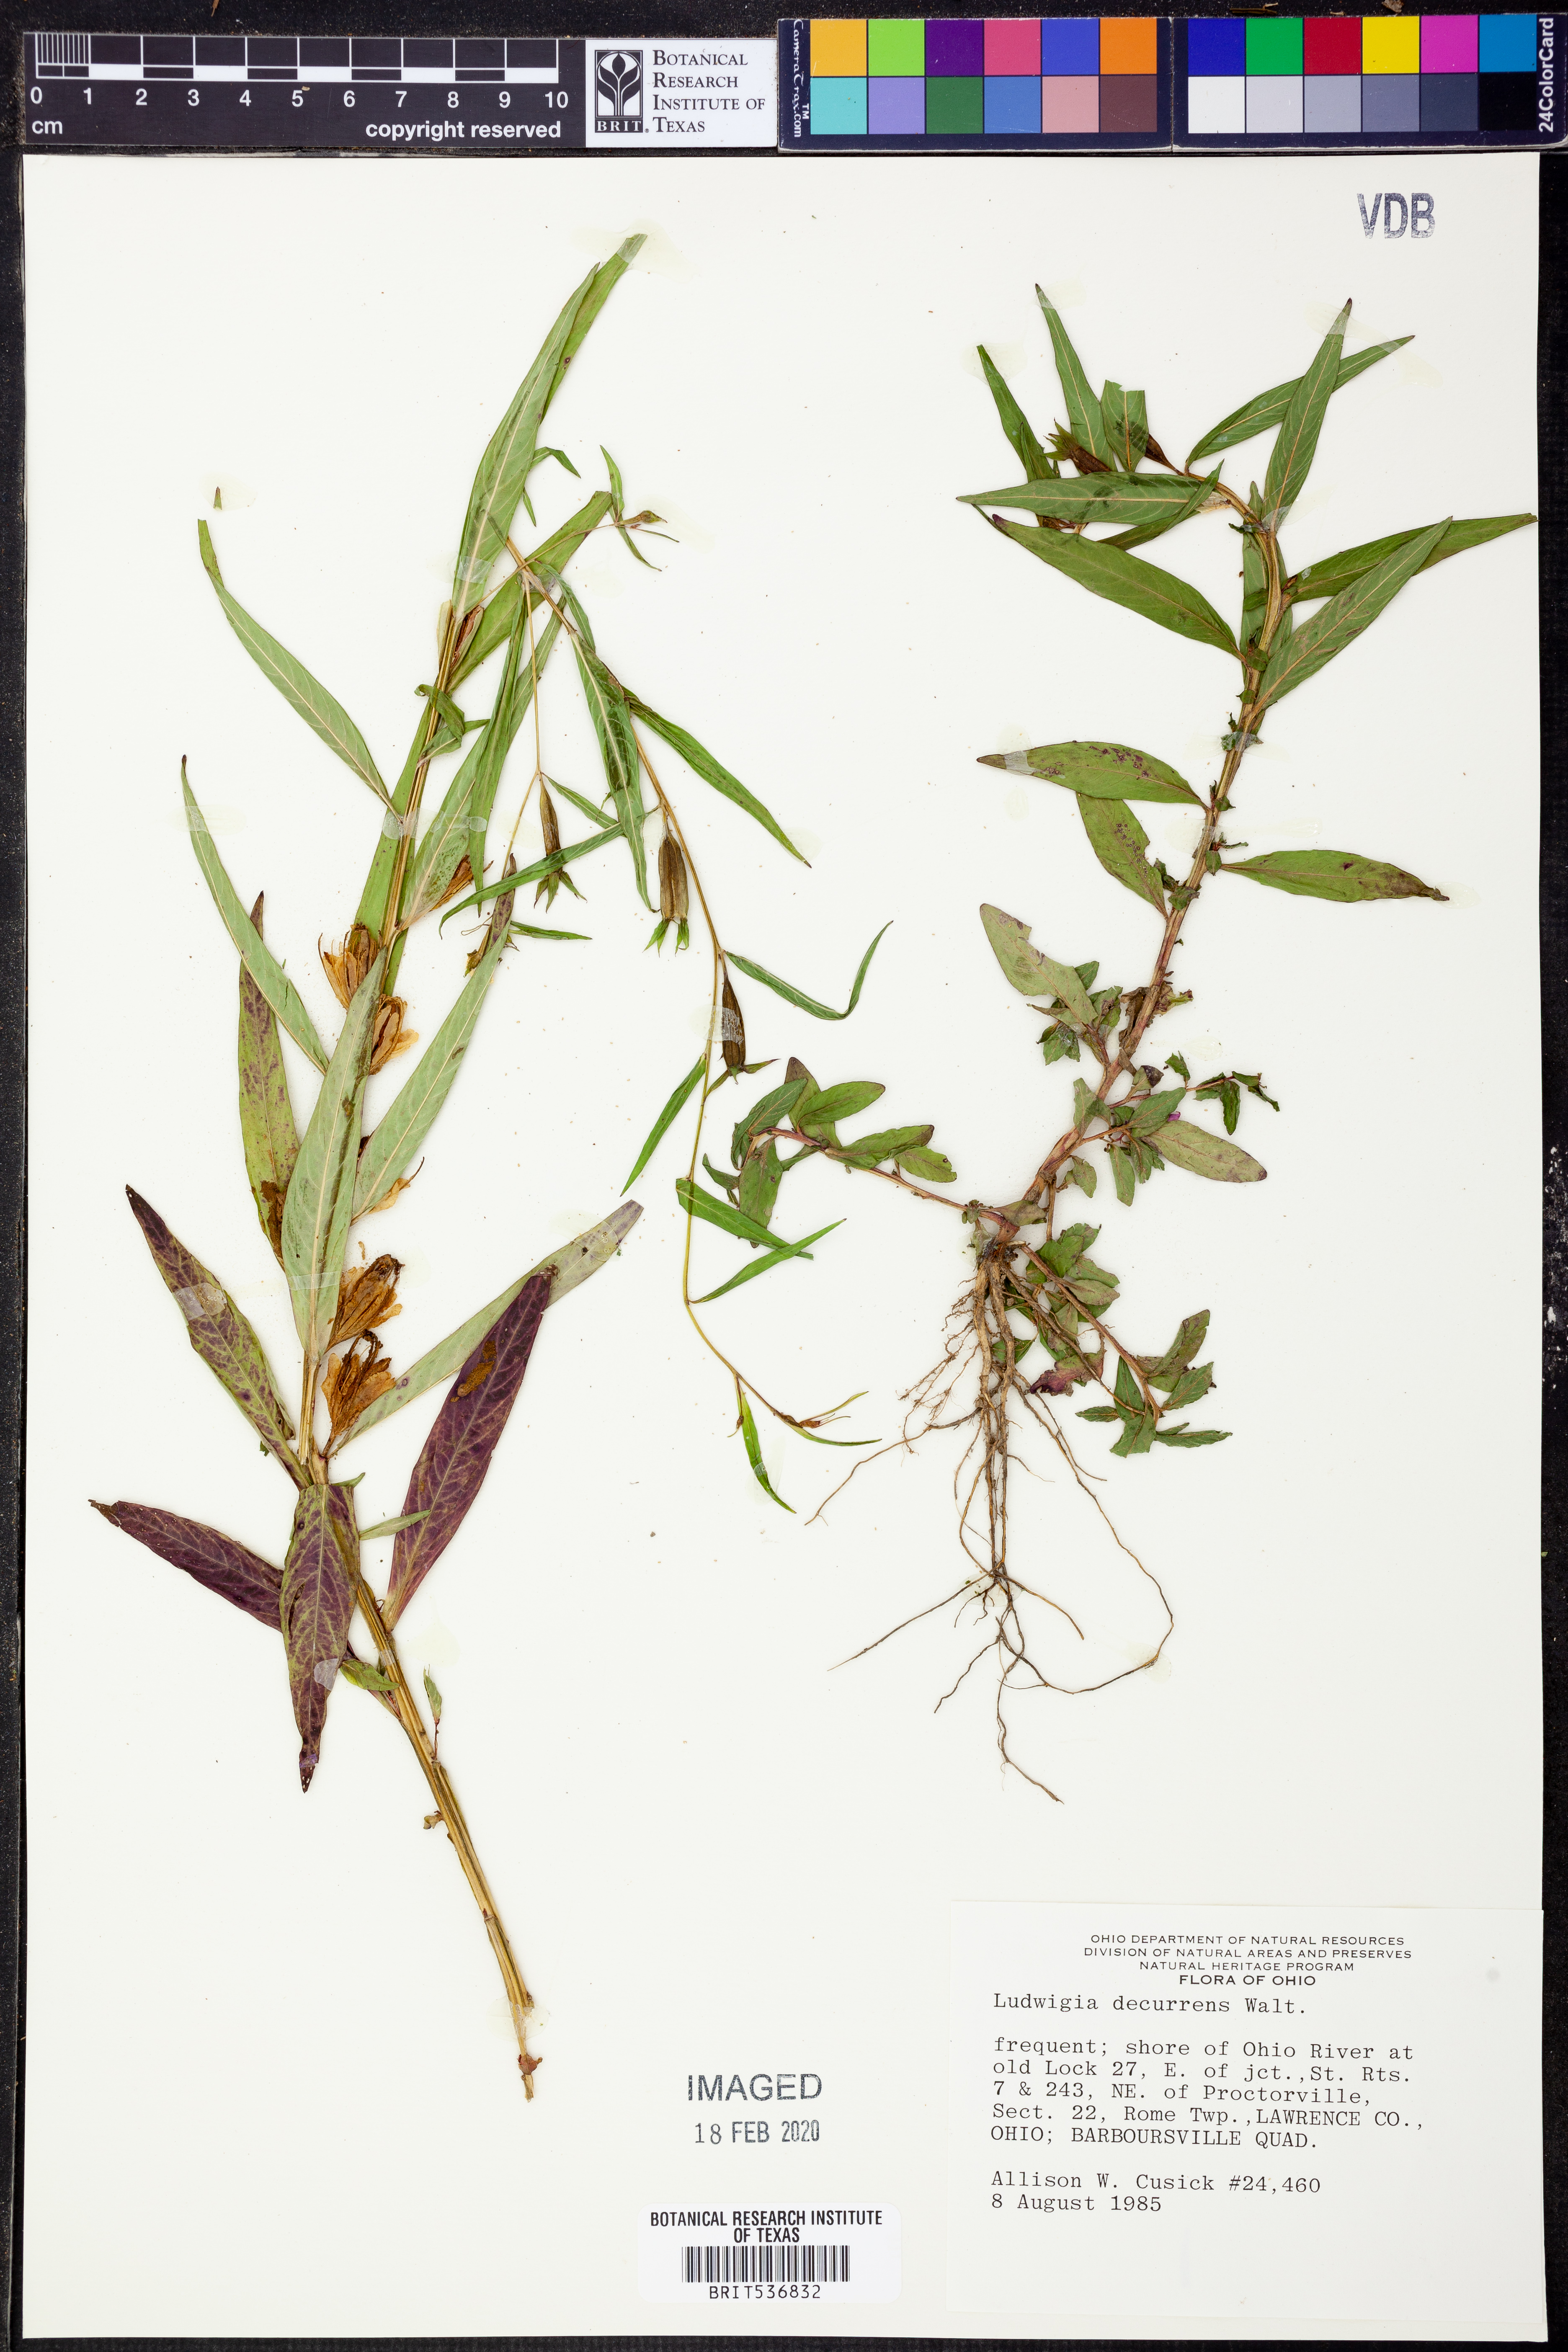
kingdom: Plantae
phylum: Tracheophyta
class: Magnoliopsida
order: Myrtales
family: Onagraceae
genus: Ludwigia
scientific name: Ludwigia decurrens
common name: Winged water-primrose
